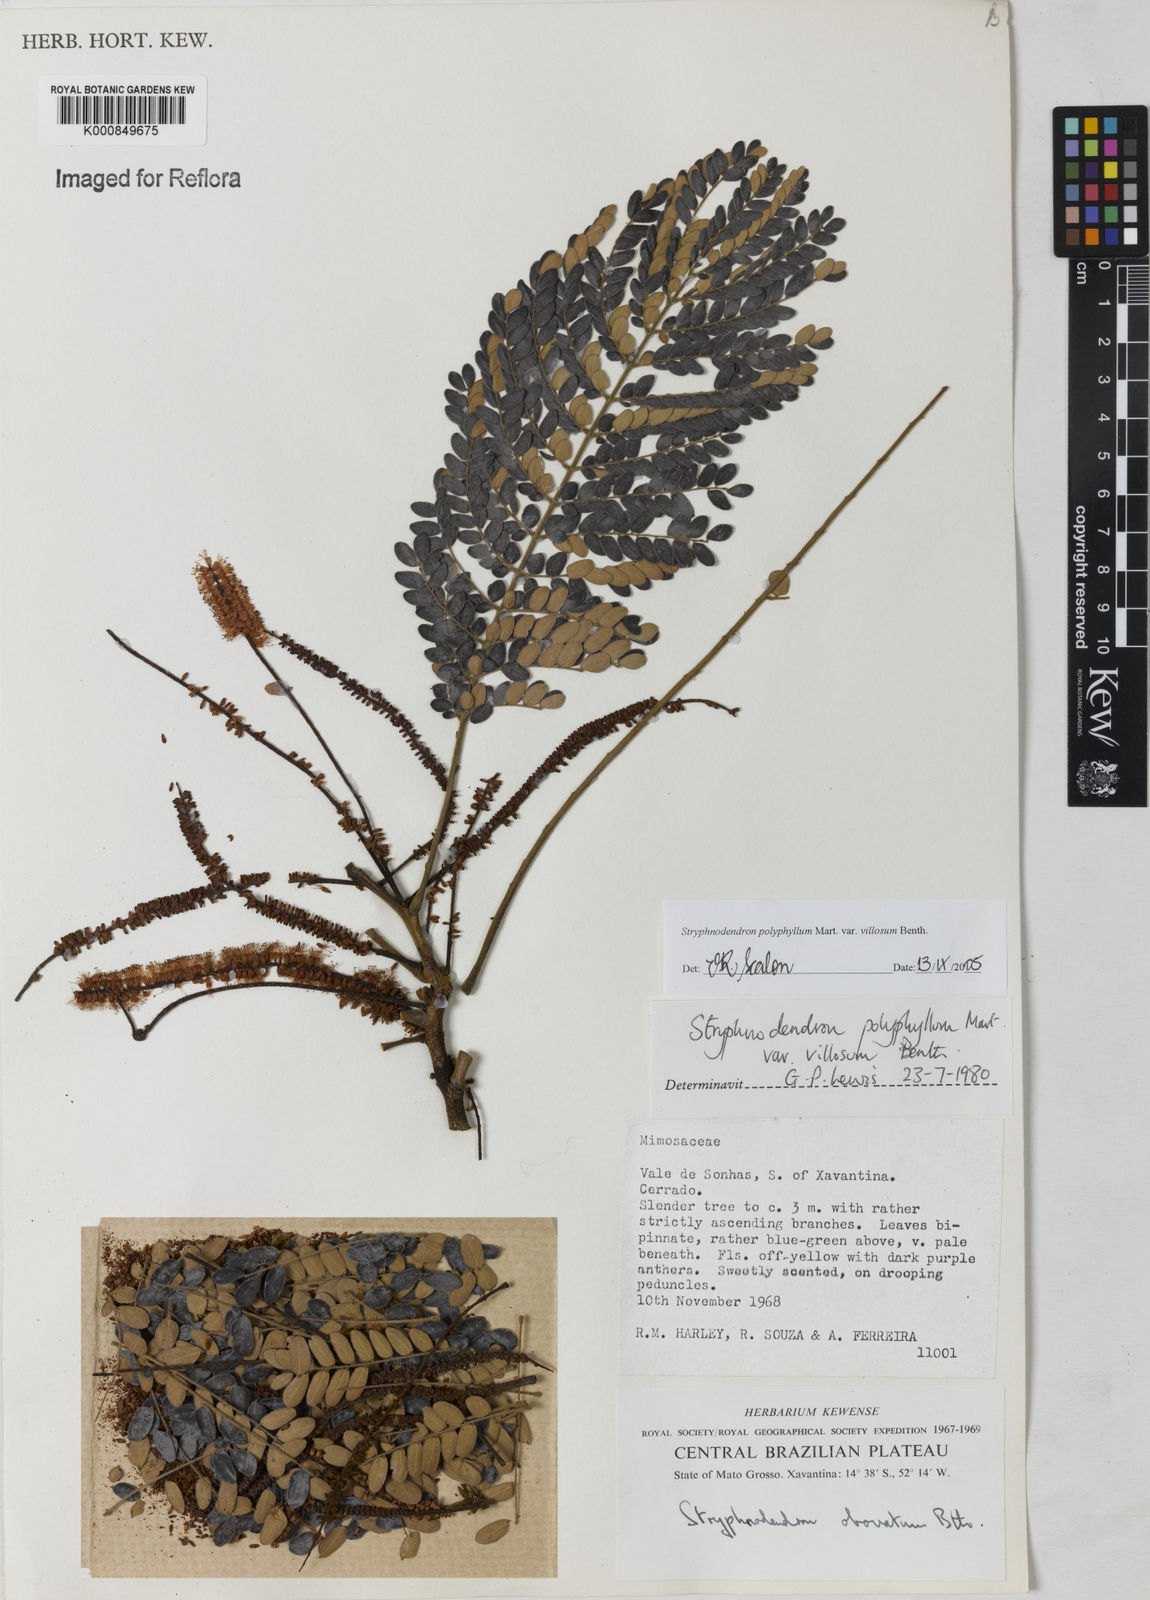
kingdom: Plantae
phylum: Tracheophyta
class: Magnoliopsida
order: Fabales
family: Fabaceae
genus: Stryphnodendron
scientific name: Stryphnodendron polyphyllum
